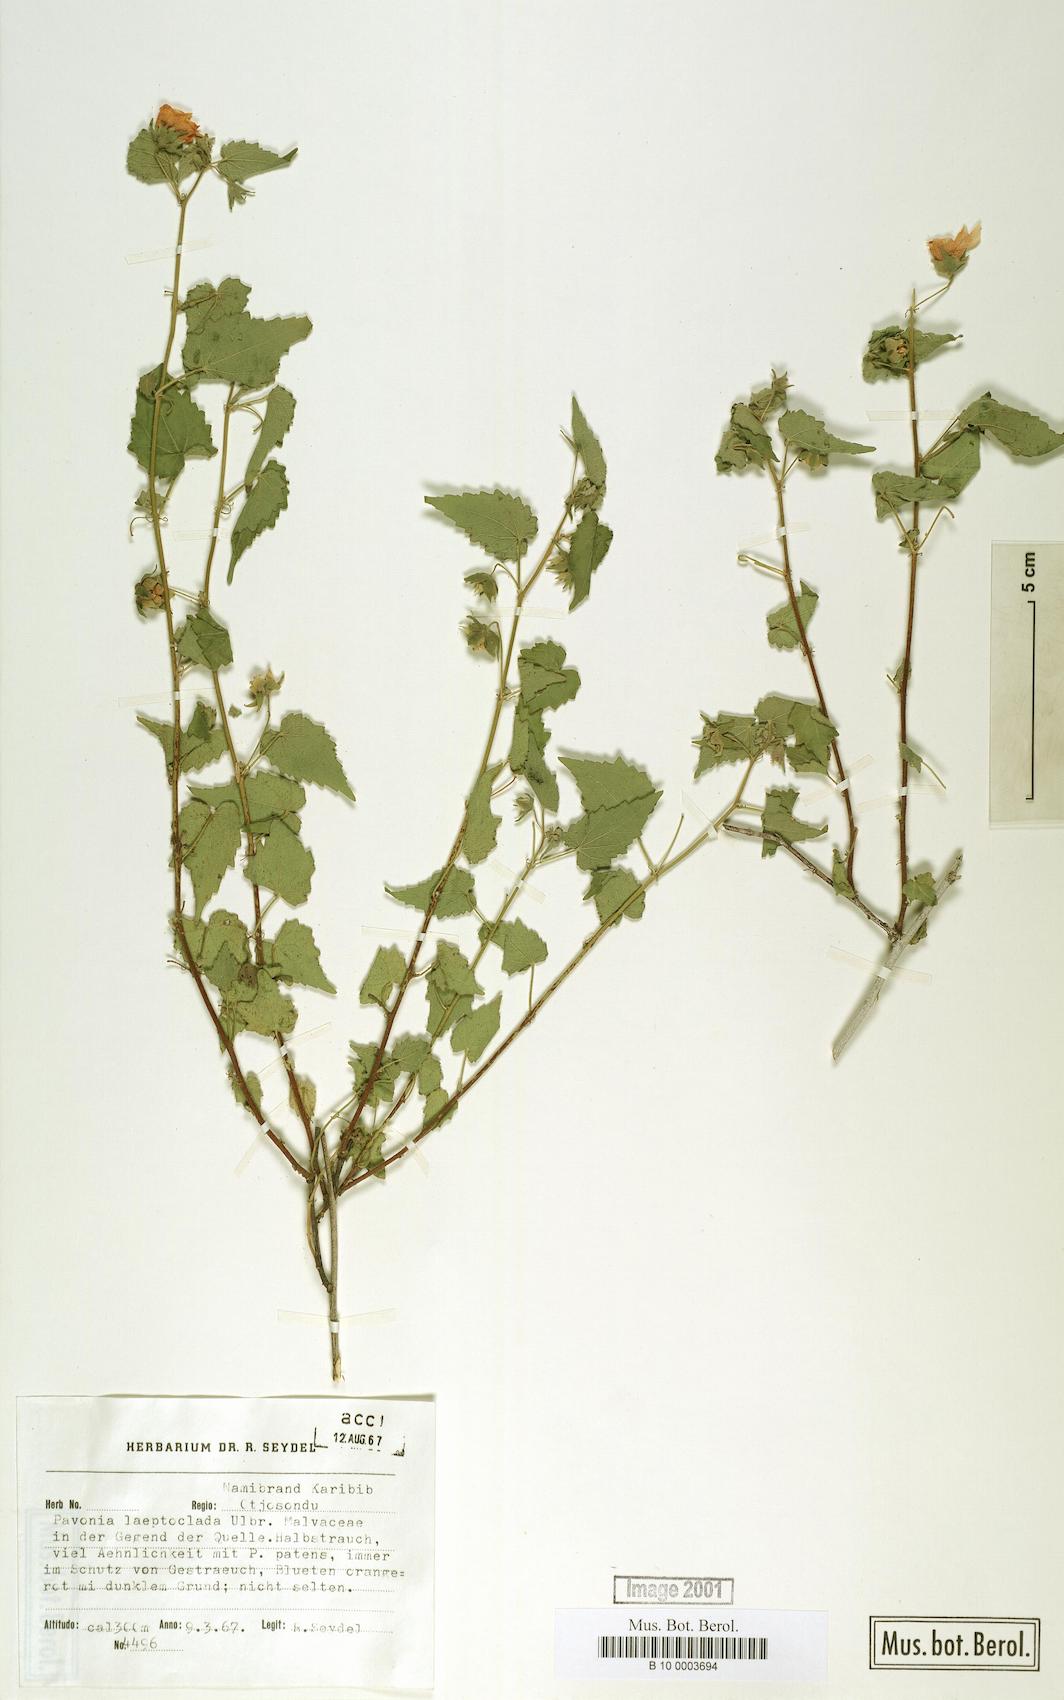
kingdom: Plantae
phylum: Tracheophyta
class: Magnoliopsida
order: Malvales
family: Malvaceae
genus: Pavonia
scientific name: Pavonia burchellii
